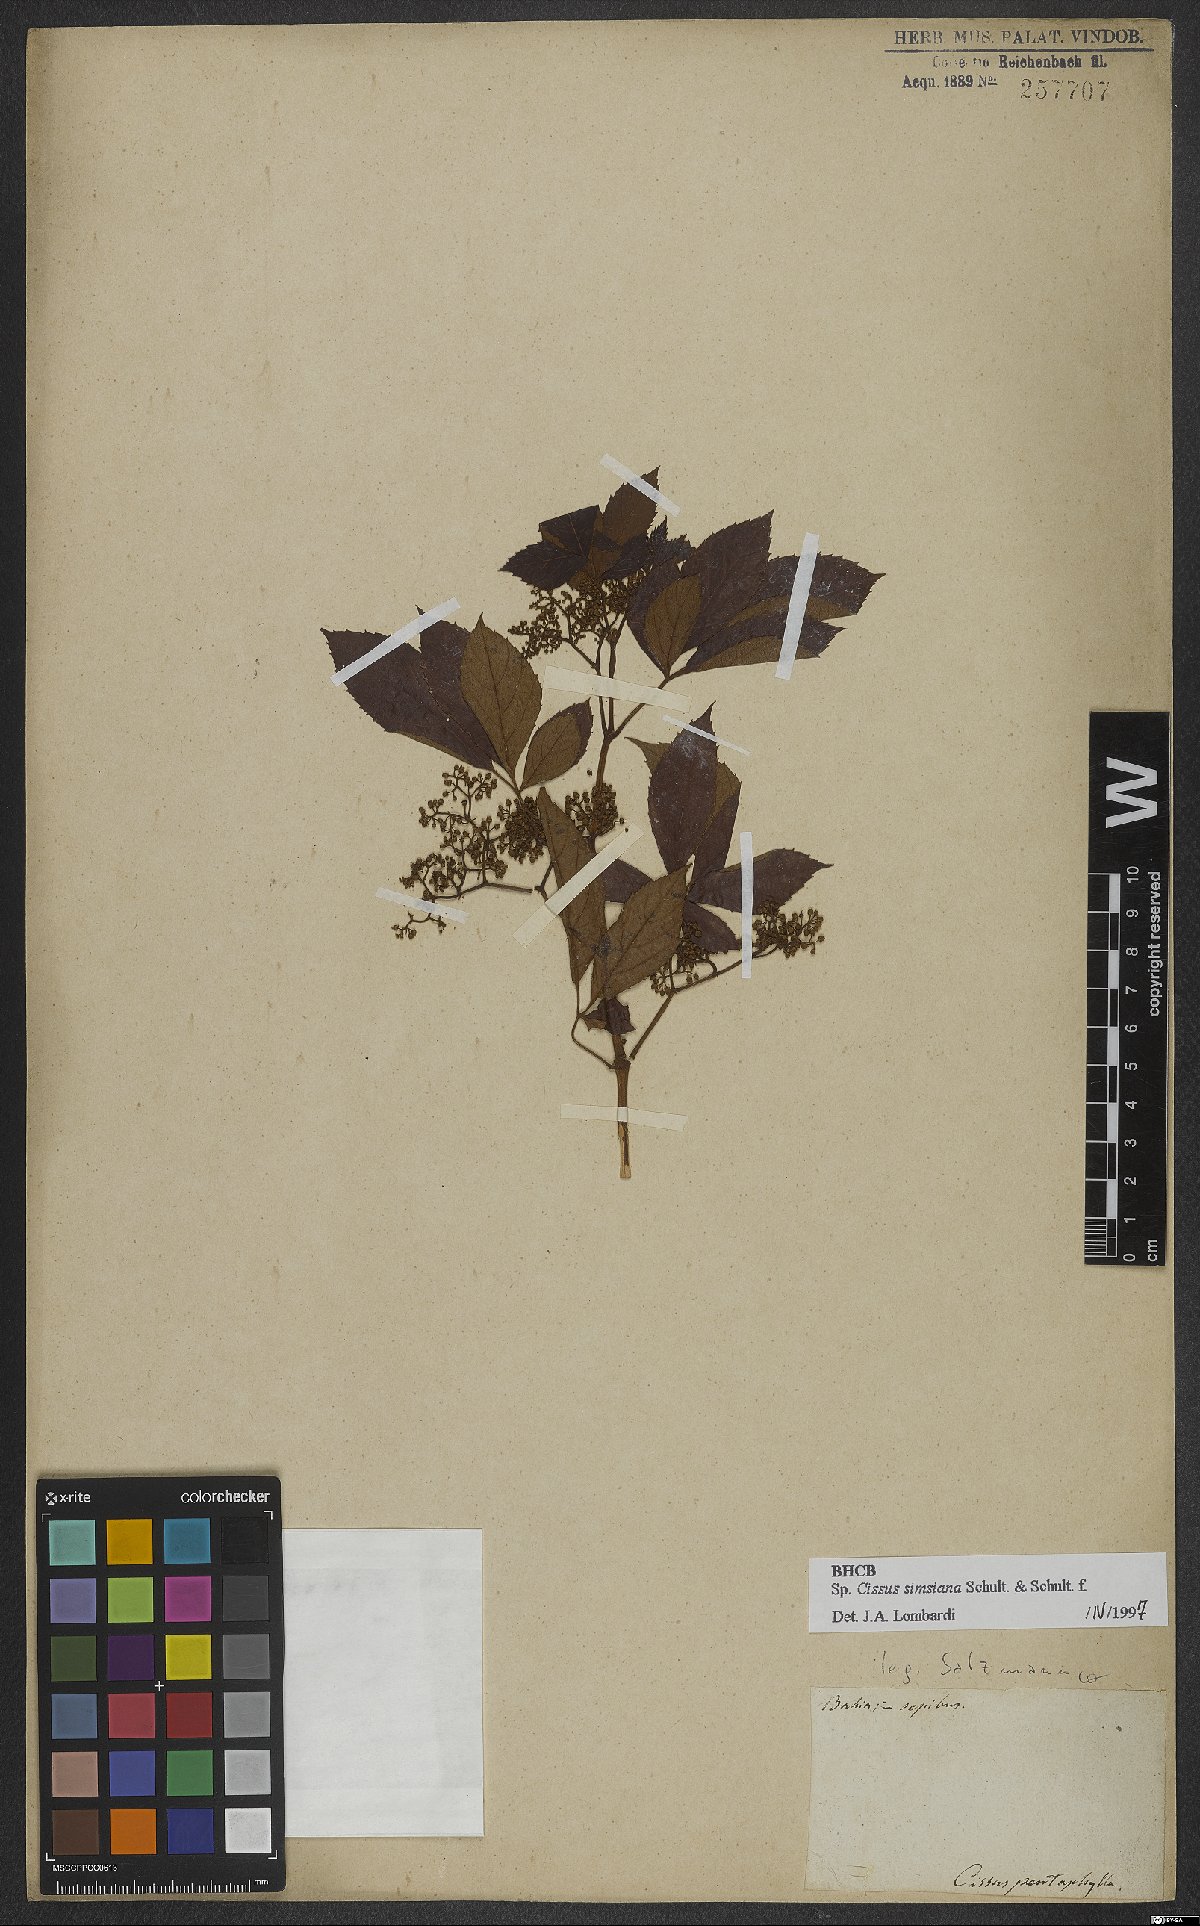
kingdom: Plantae
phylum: Tracheophyta
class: Magnoliopsida
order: Vitales
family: Vitaceae
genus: Clematicissus
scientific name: Clematicissus simsiana
